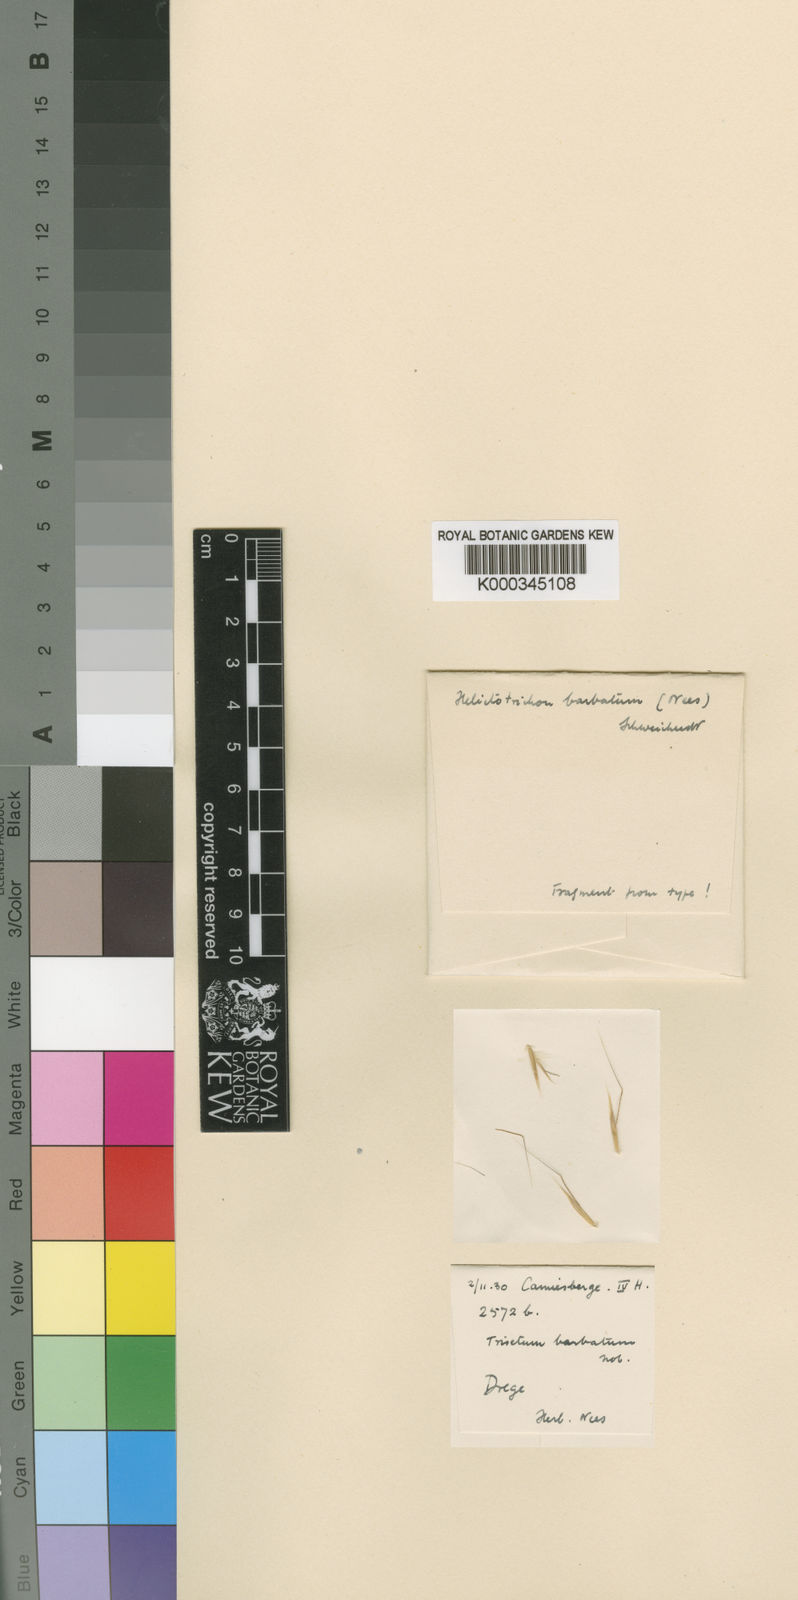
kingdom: Plantae
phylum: Tracheophyta
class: Liliopsida
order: Poales
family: Poaceae
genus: Trisetopsis
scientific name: Trisetopsis barbata
